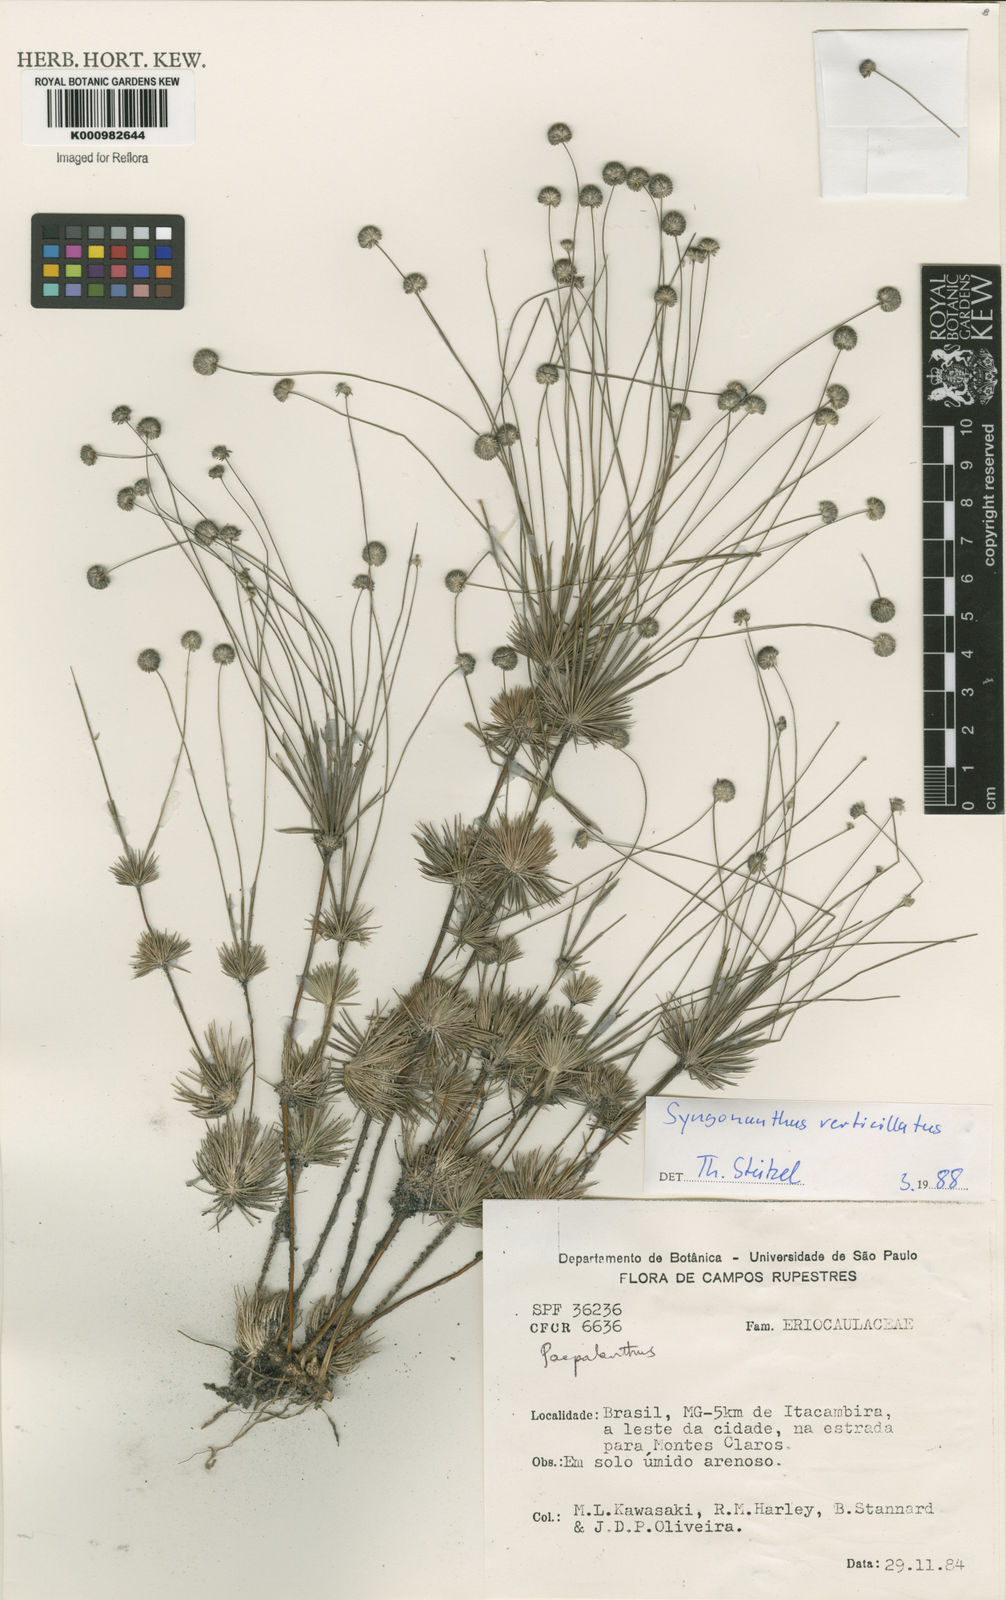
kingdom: Plantae
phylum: Tracheophyta
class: Liliopsida
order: Poales
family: Eriocaulaceae
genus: Syngonanthus
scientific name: Syngonanthus verticillatus
